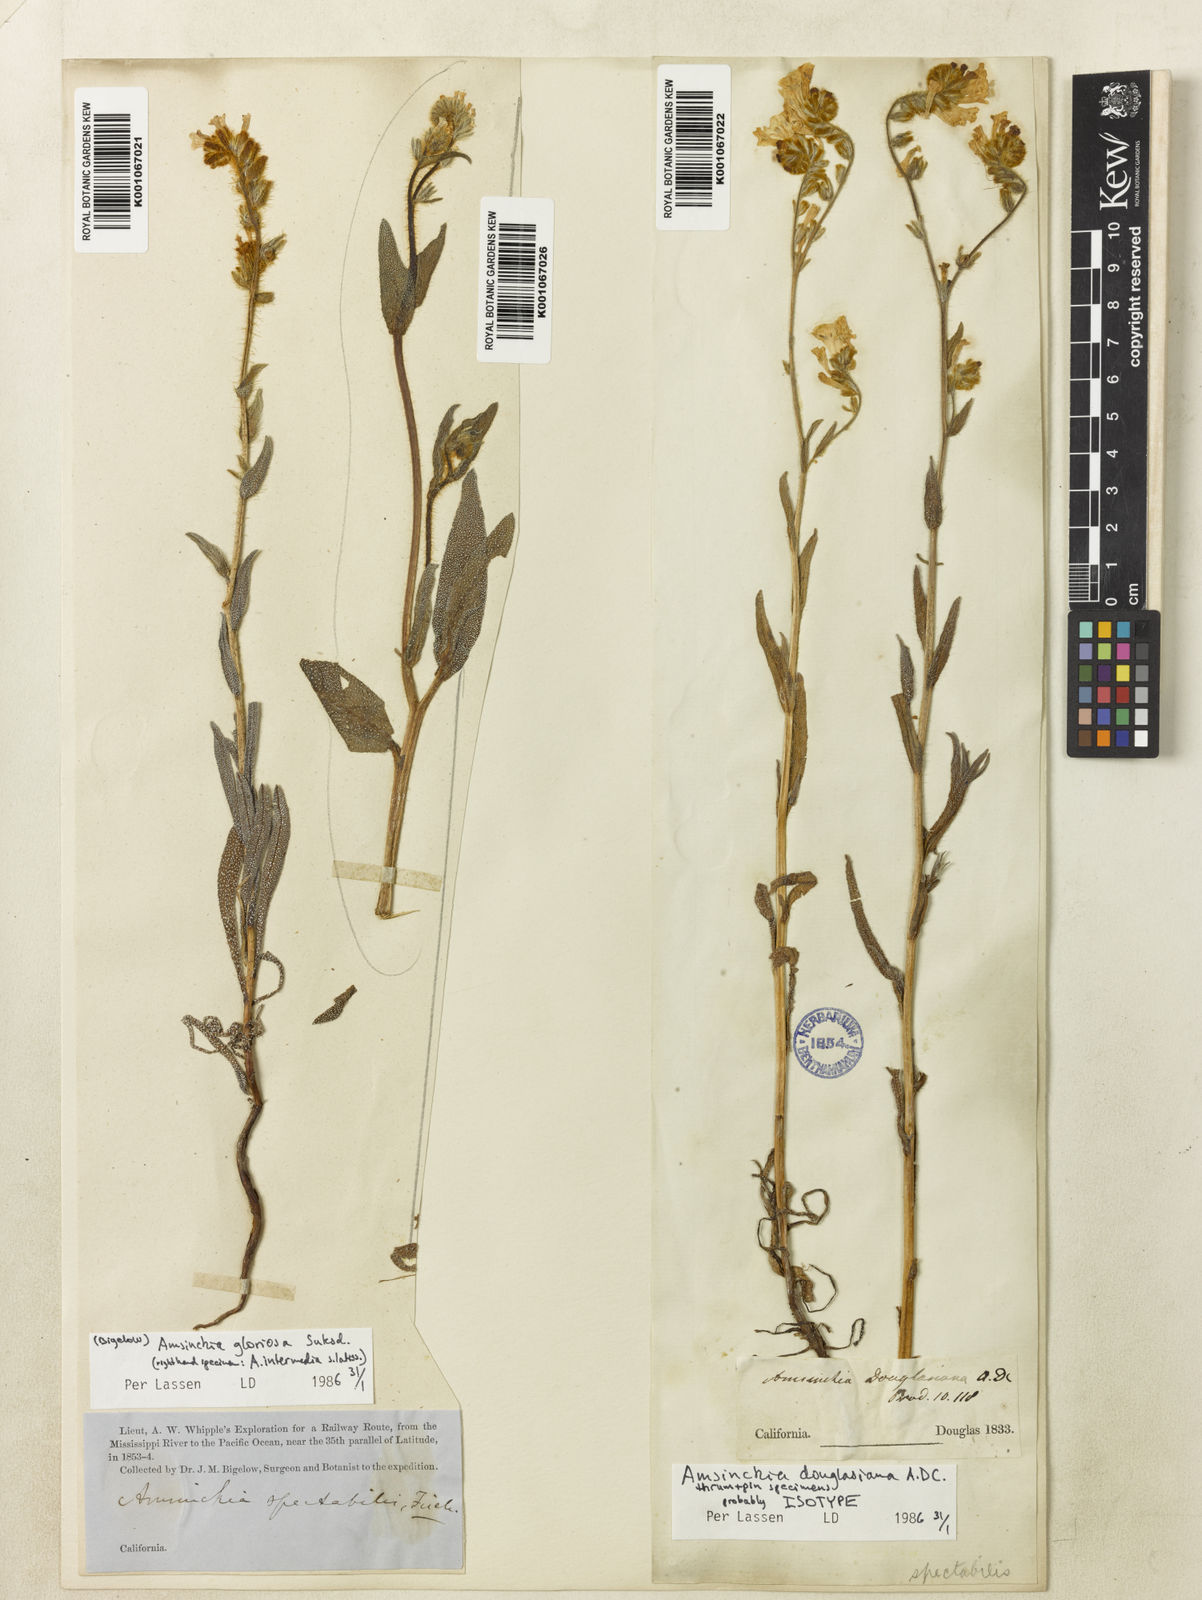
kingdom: Plantae
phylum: Tracheophyta
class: Magnoliopsida
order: Boraginales
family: Boraginaceae
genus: Amsinckia
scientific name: Amsinckia douglasiana
